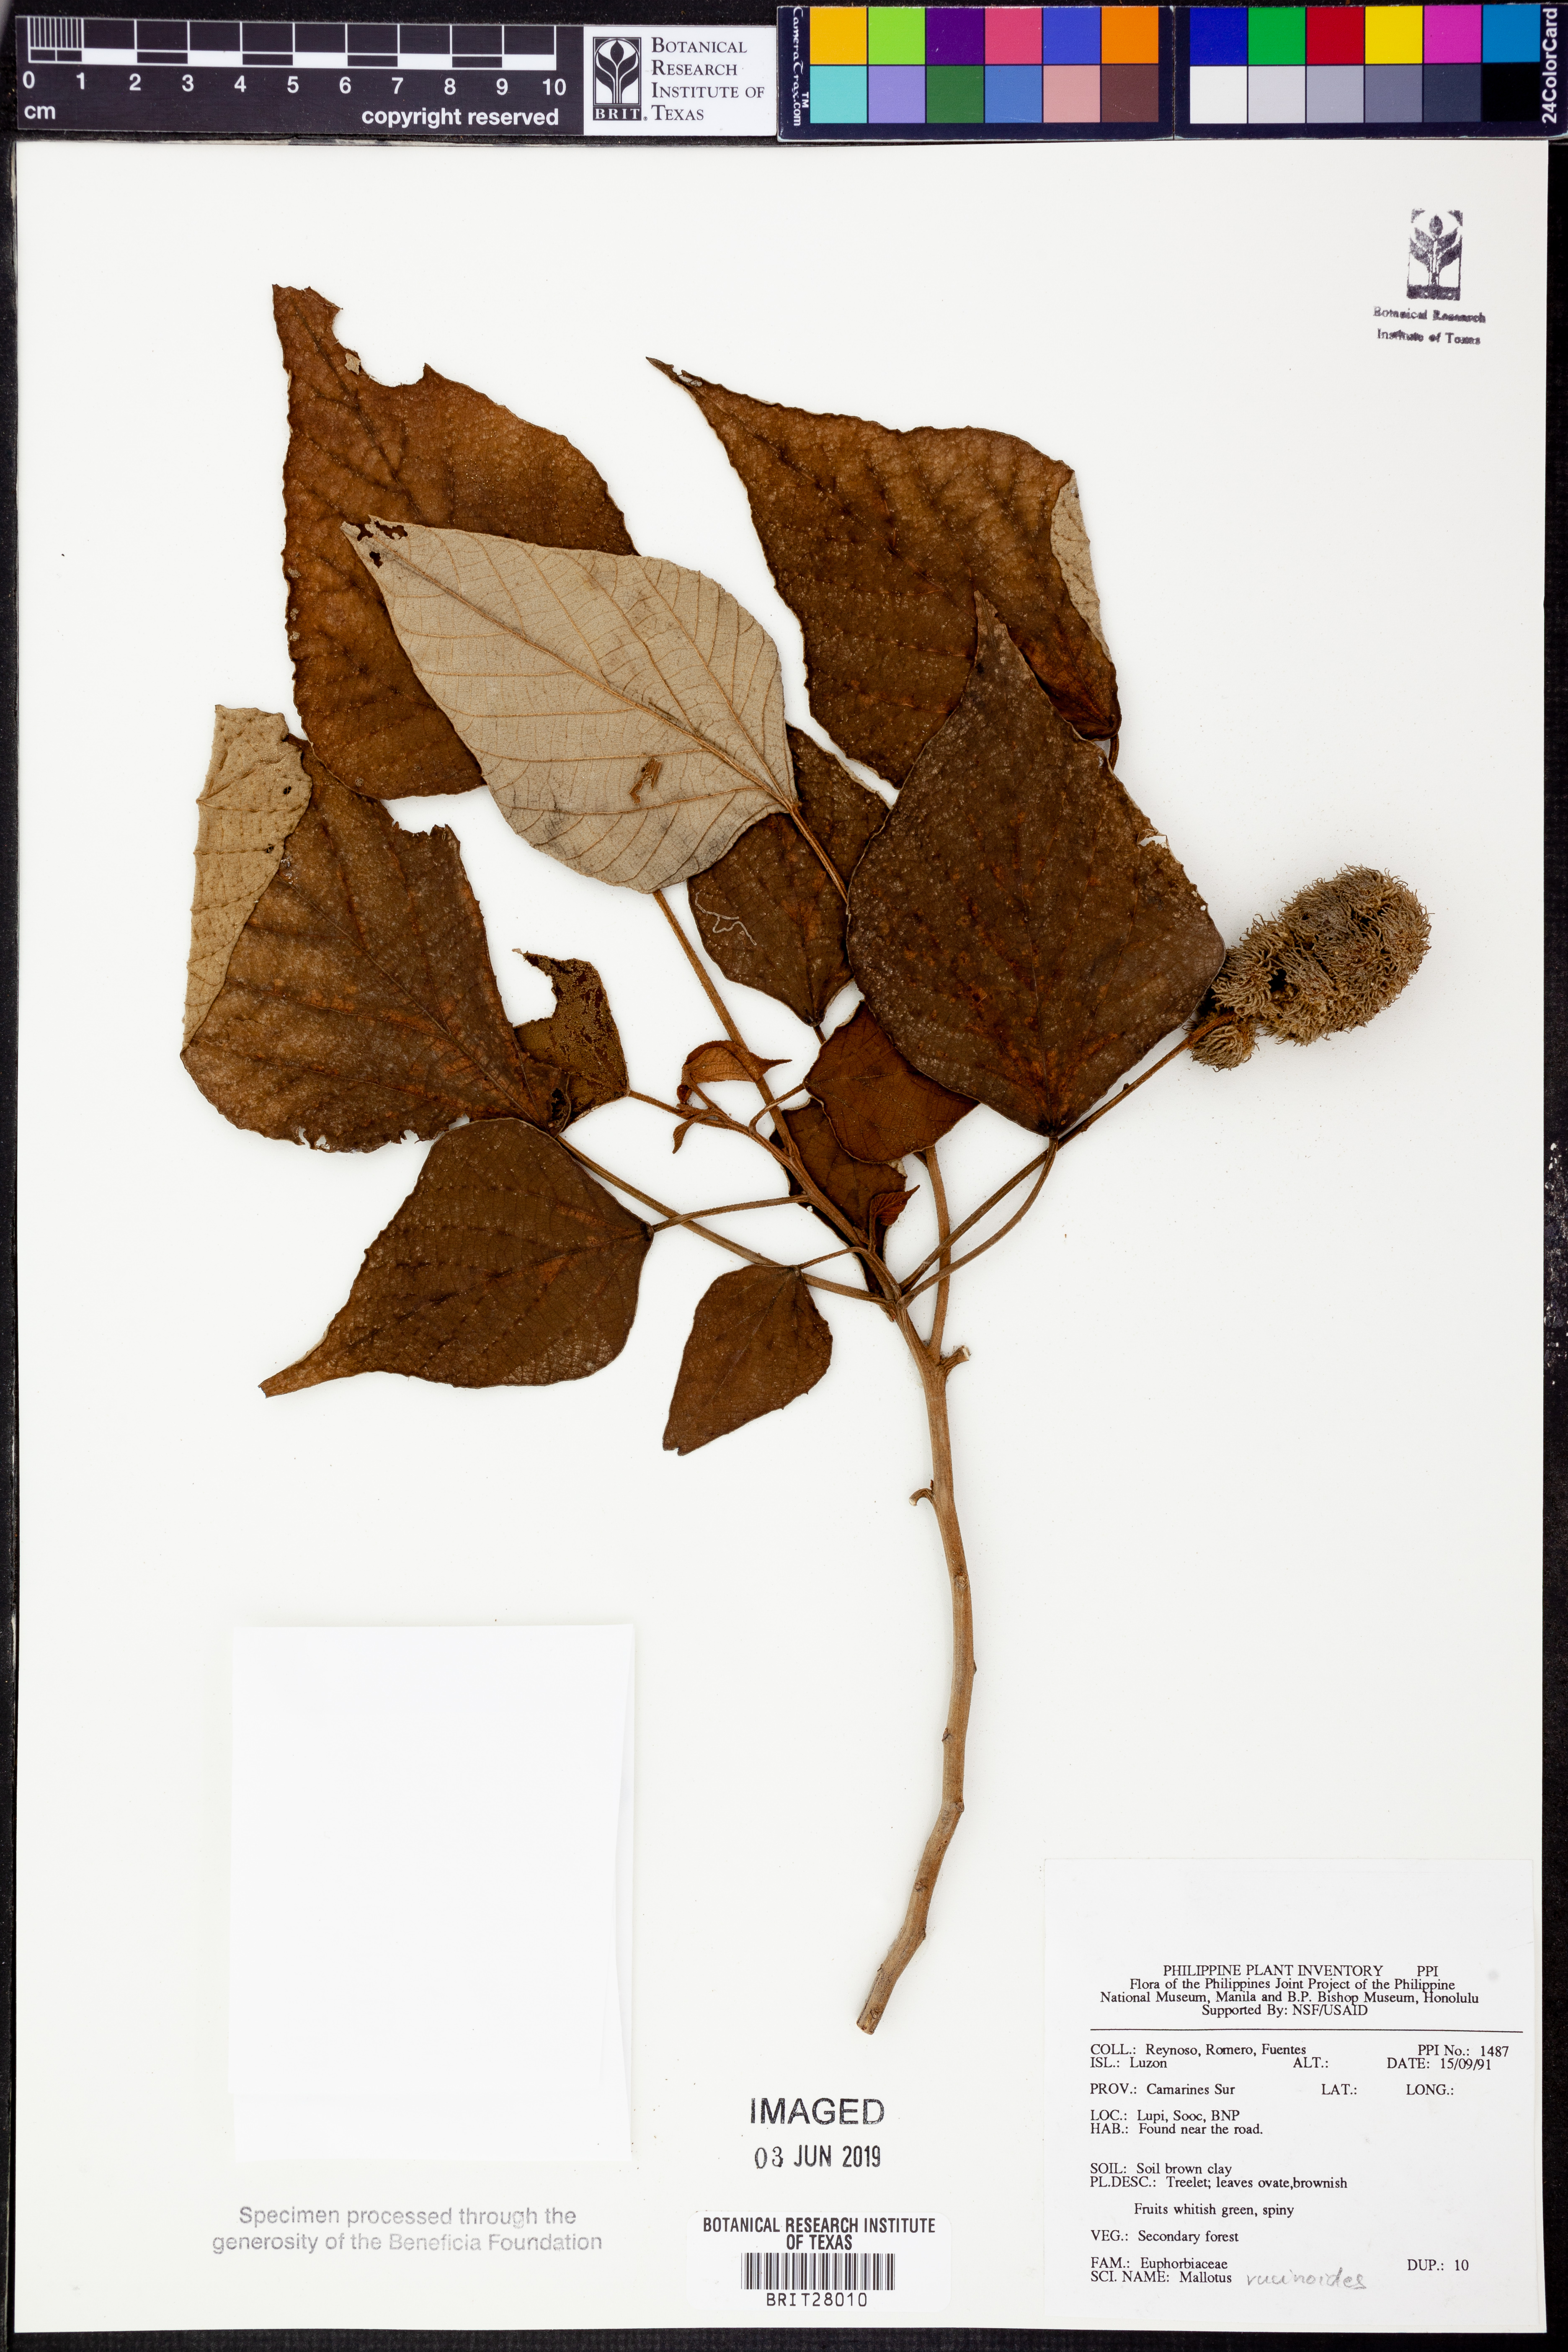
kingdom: Plantae
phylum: Tracheophyta
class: Magnoliopsida
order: Malpighiales
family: Euphorbiaceae
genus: Mallotus
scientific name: Mallotus mollissimus
